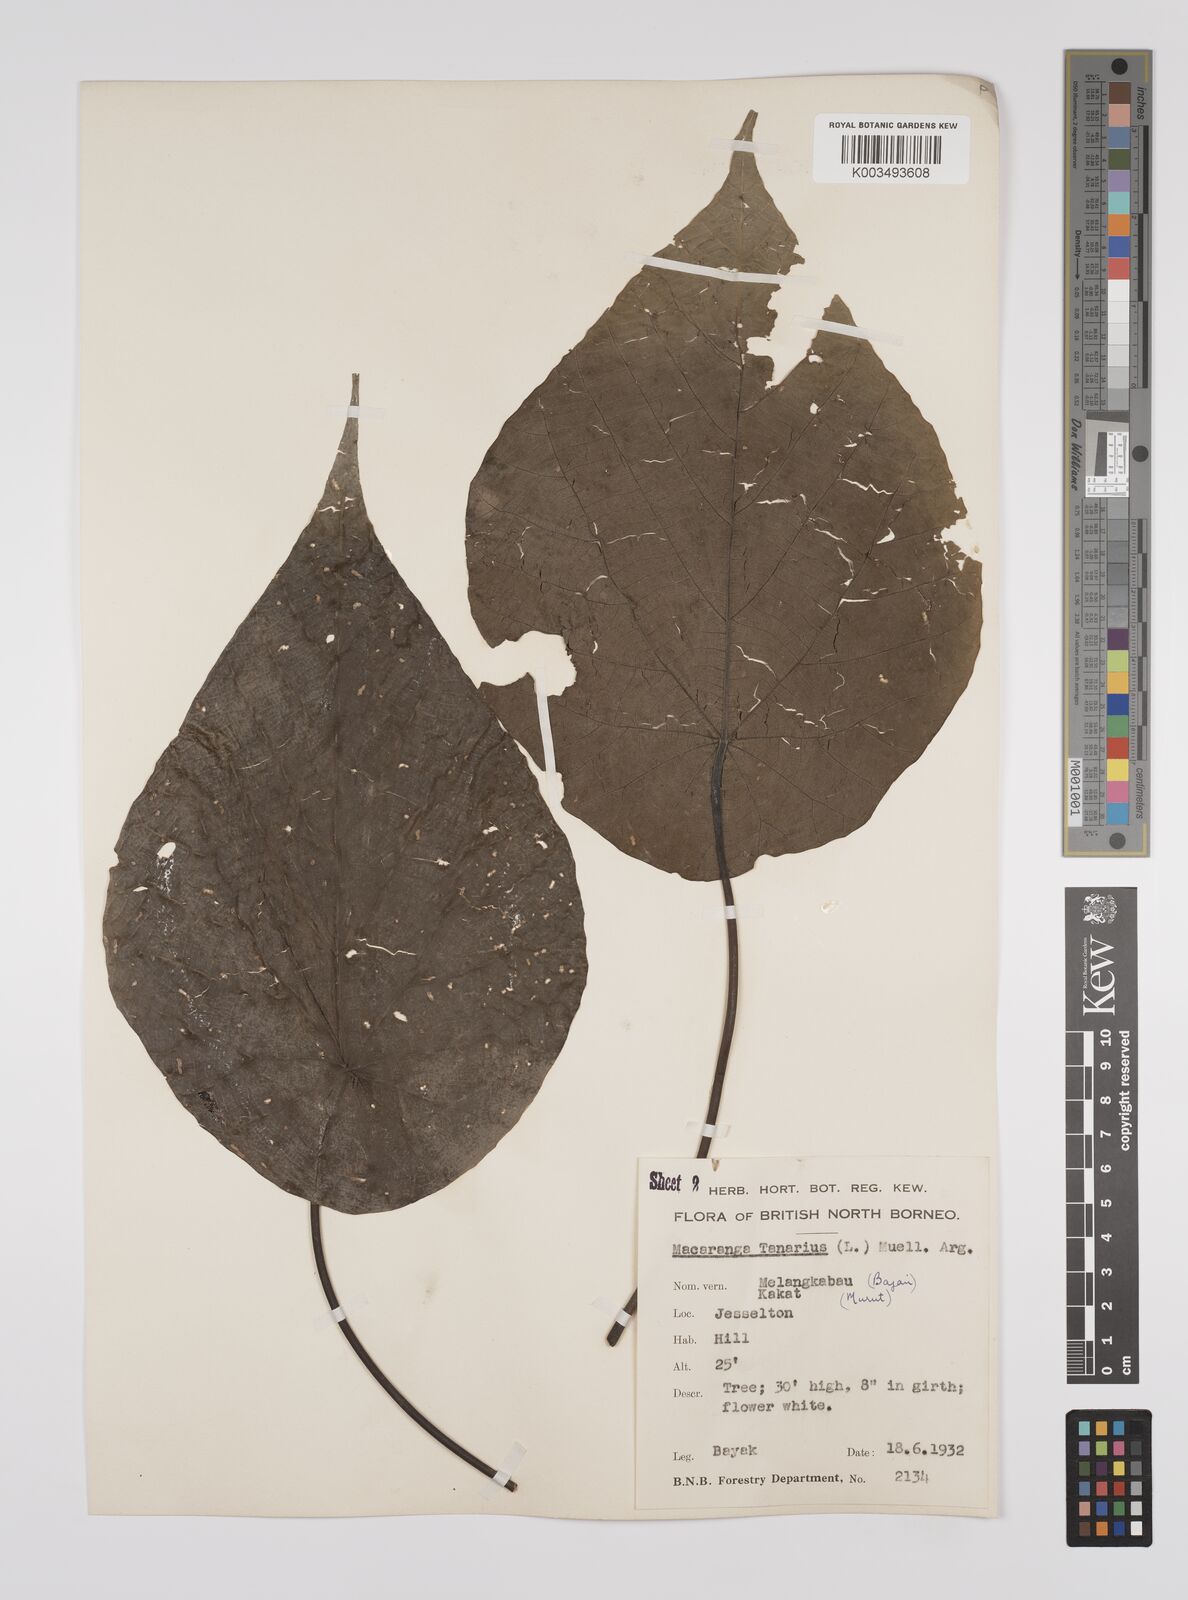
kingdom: Plantae
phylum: Tracheophyta
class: Magnoliopsida
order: Malpighiales
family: Euphorbiaceae
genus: Macaranga
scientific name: Macaranga tanarius
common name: Parasol leaf tree
